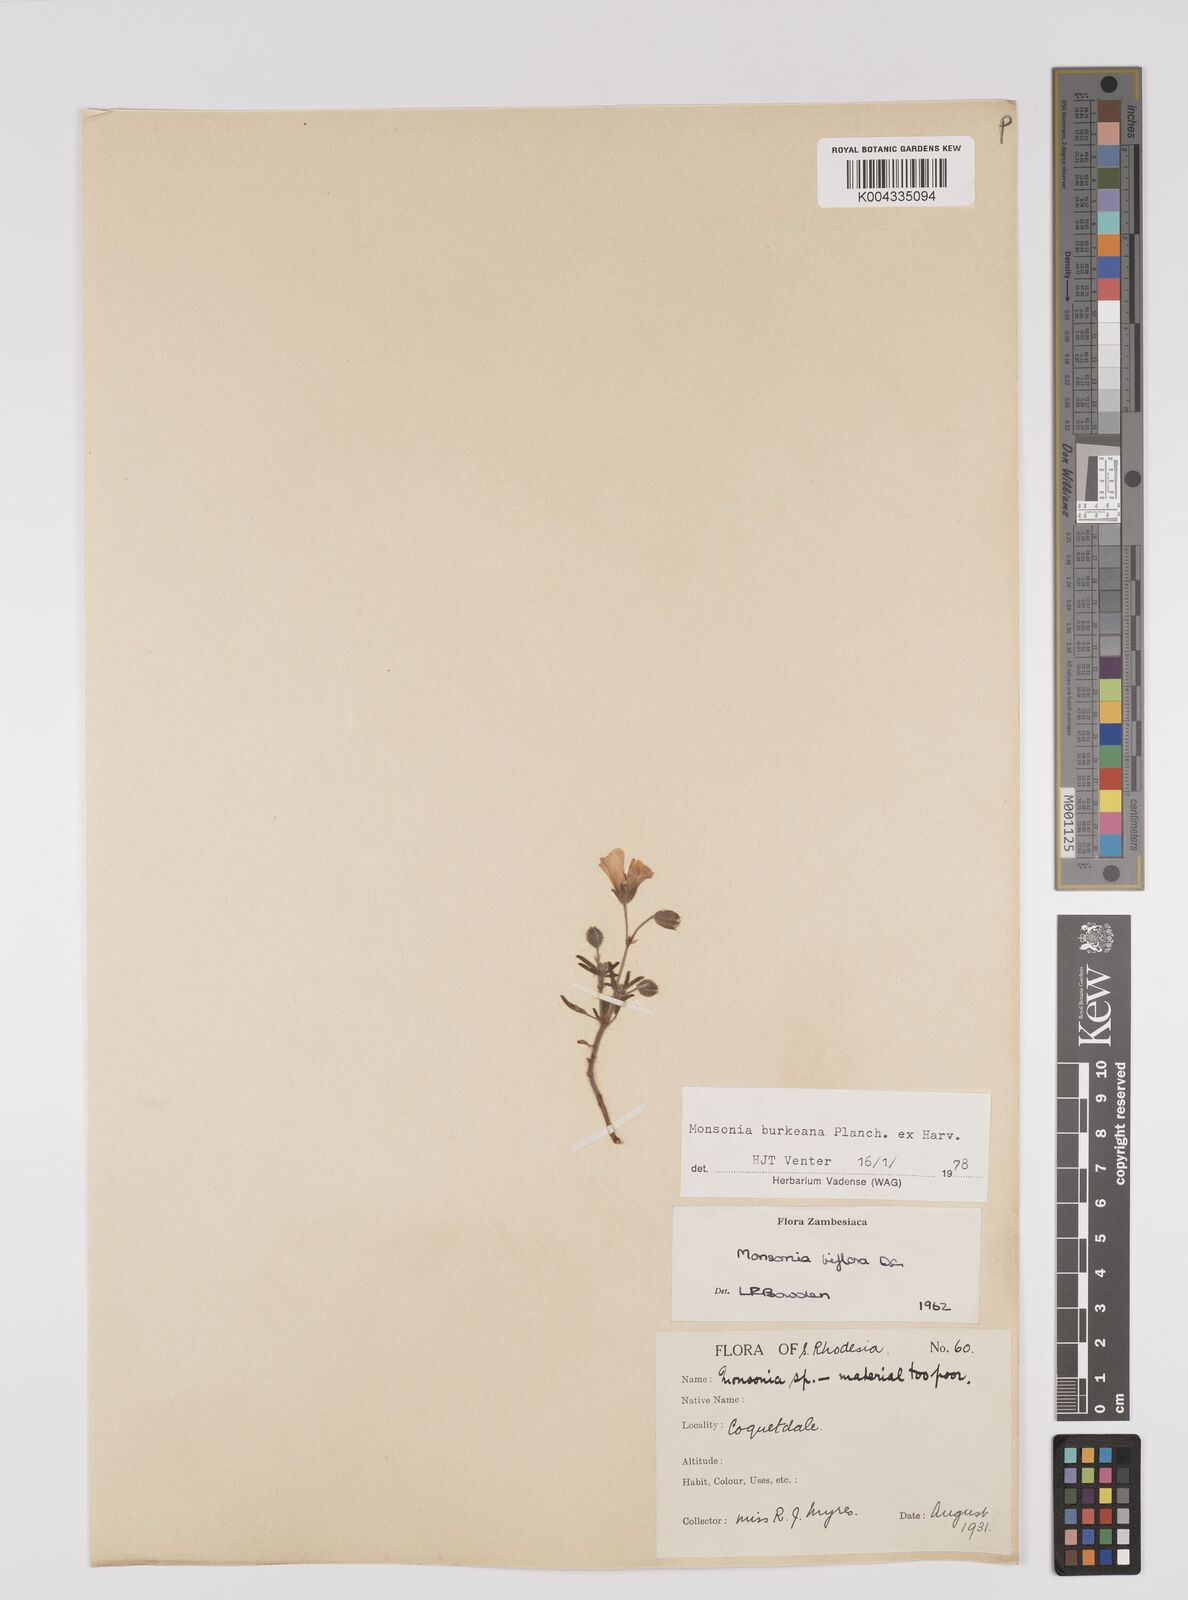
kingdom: Plantae
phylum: Tracheophyta
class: Magnoliopsida
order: Geraniales
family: Geraniaceae
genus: Monsonia
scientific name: Monsonia biflora
